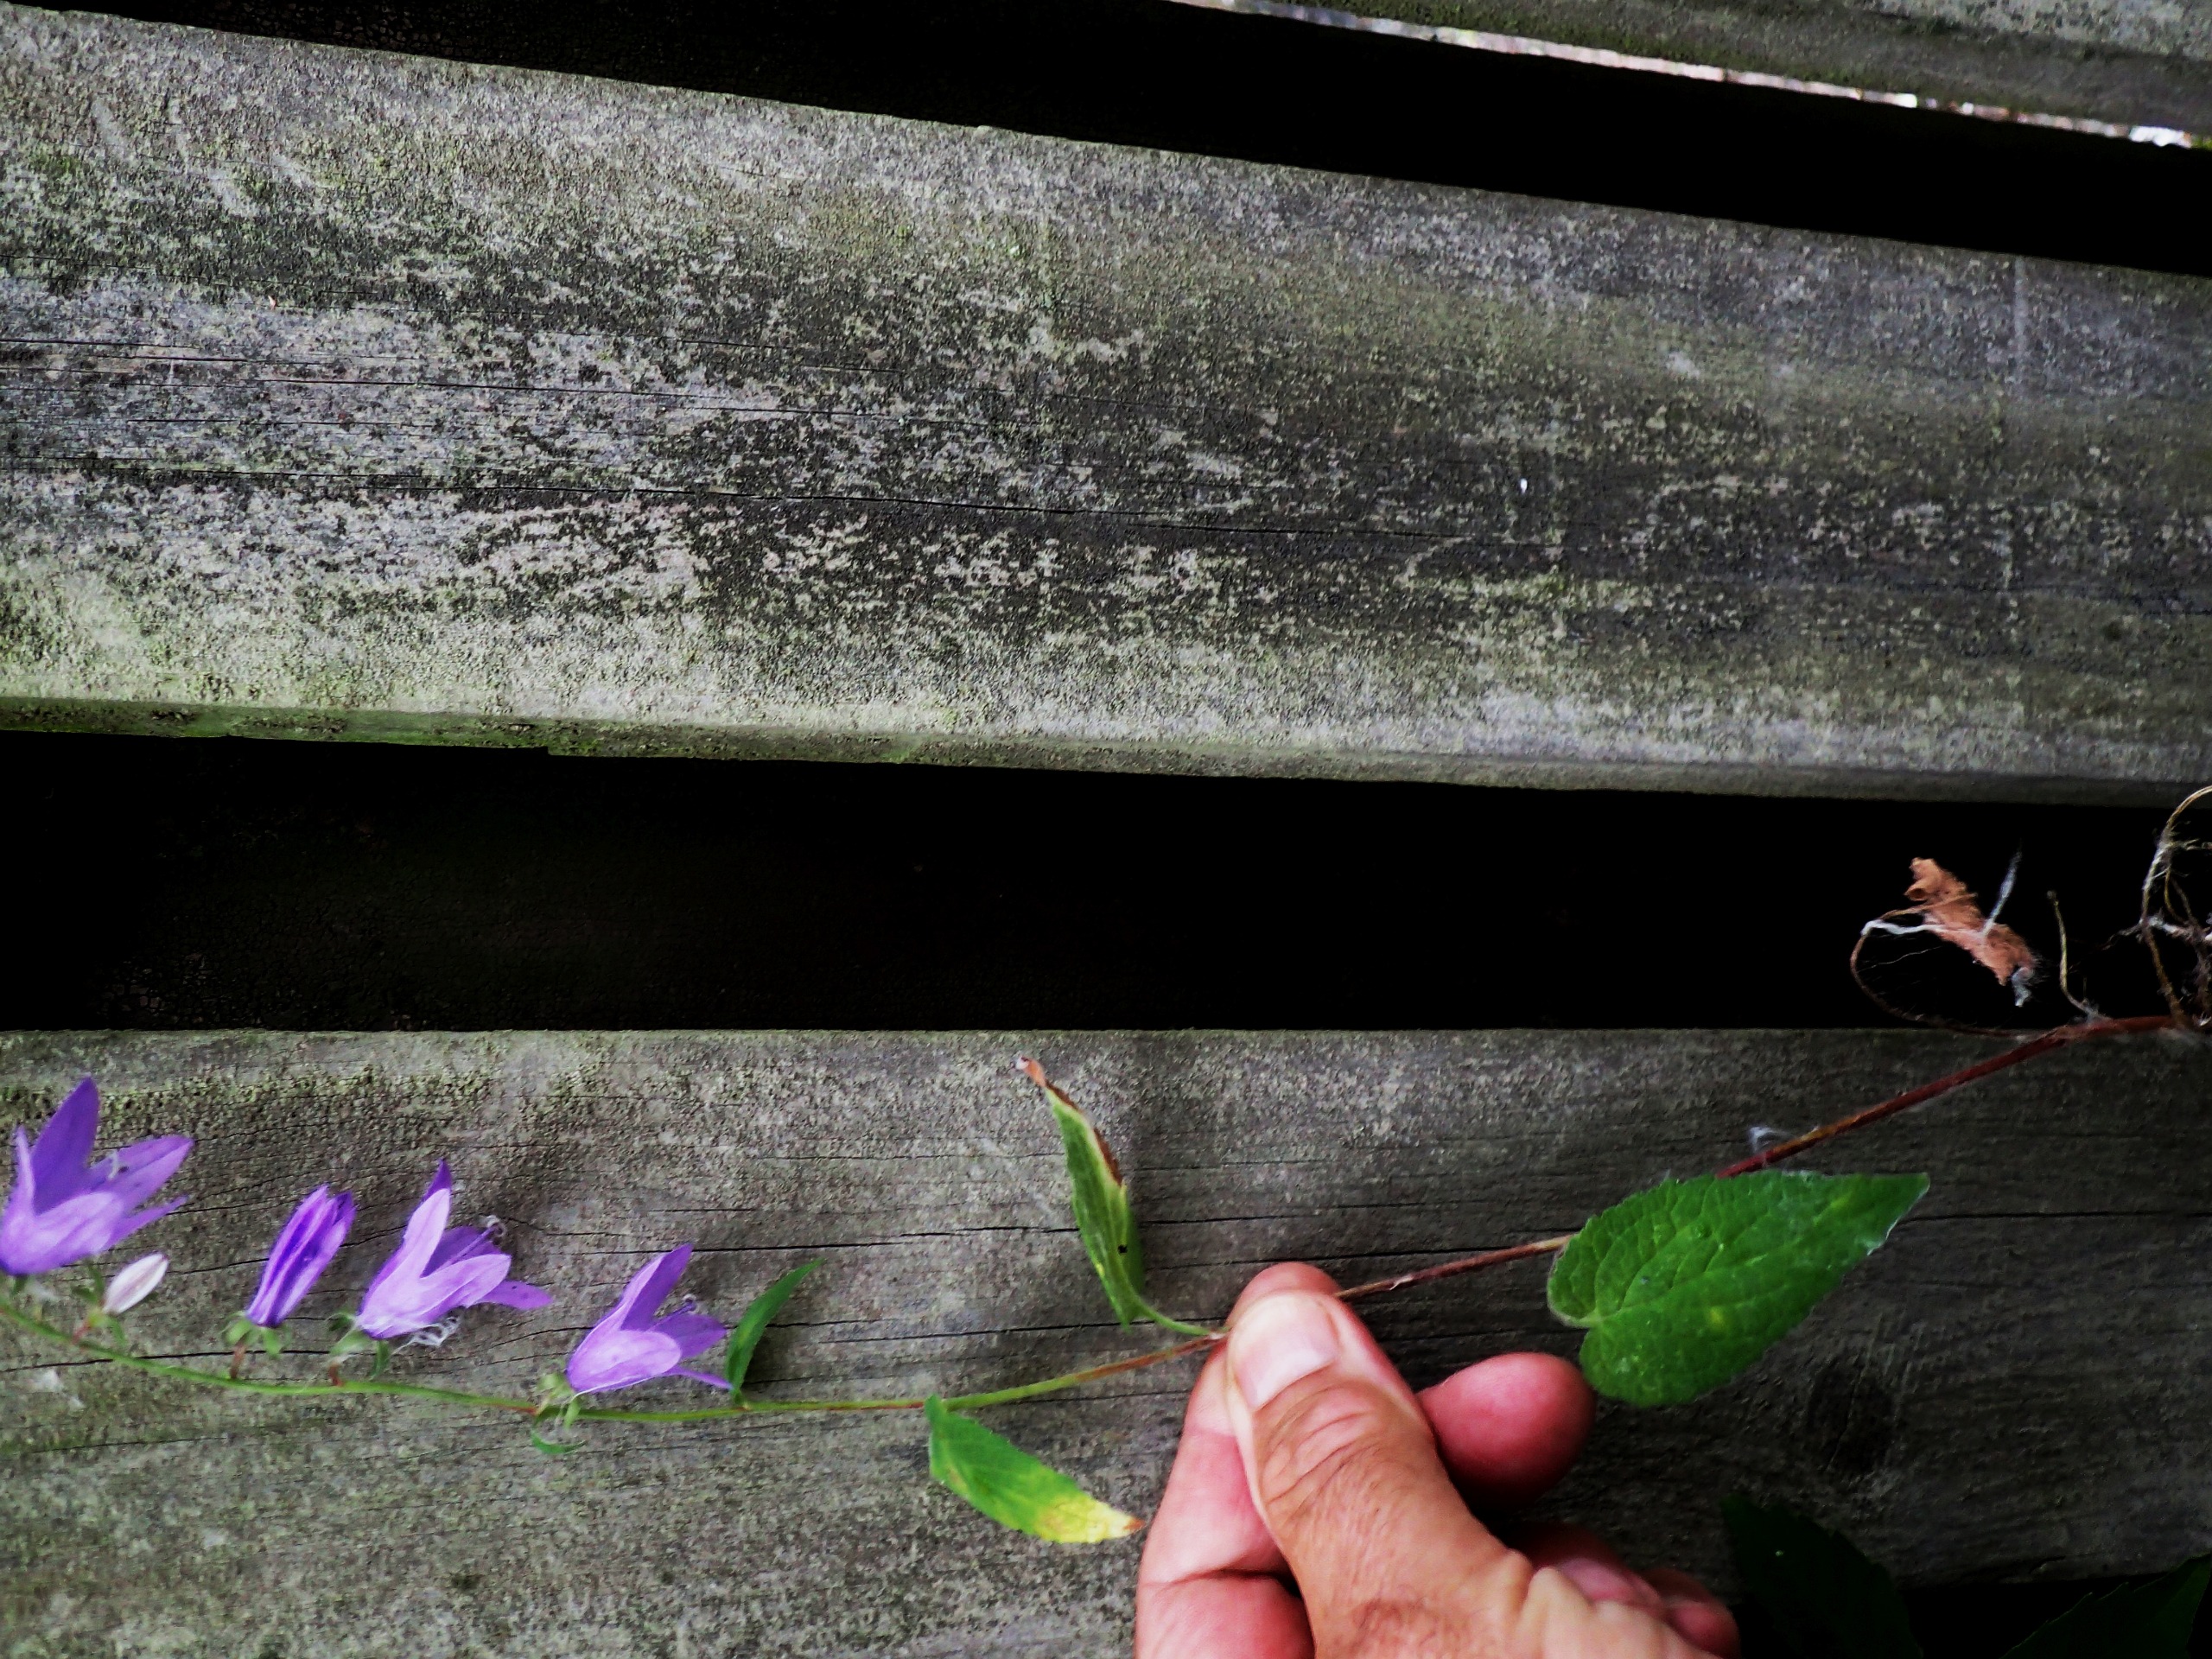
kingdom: Plantae
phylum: Tracheophyta
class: Magnoliopsida
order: Asterales
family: Campanulaceae
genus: Campanula
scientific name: Campanula rapunculoides
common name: Ensidig klokke
